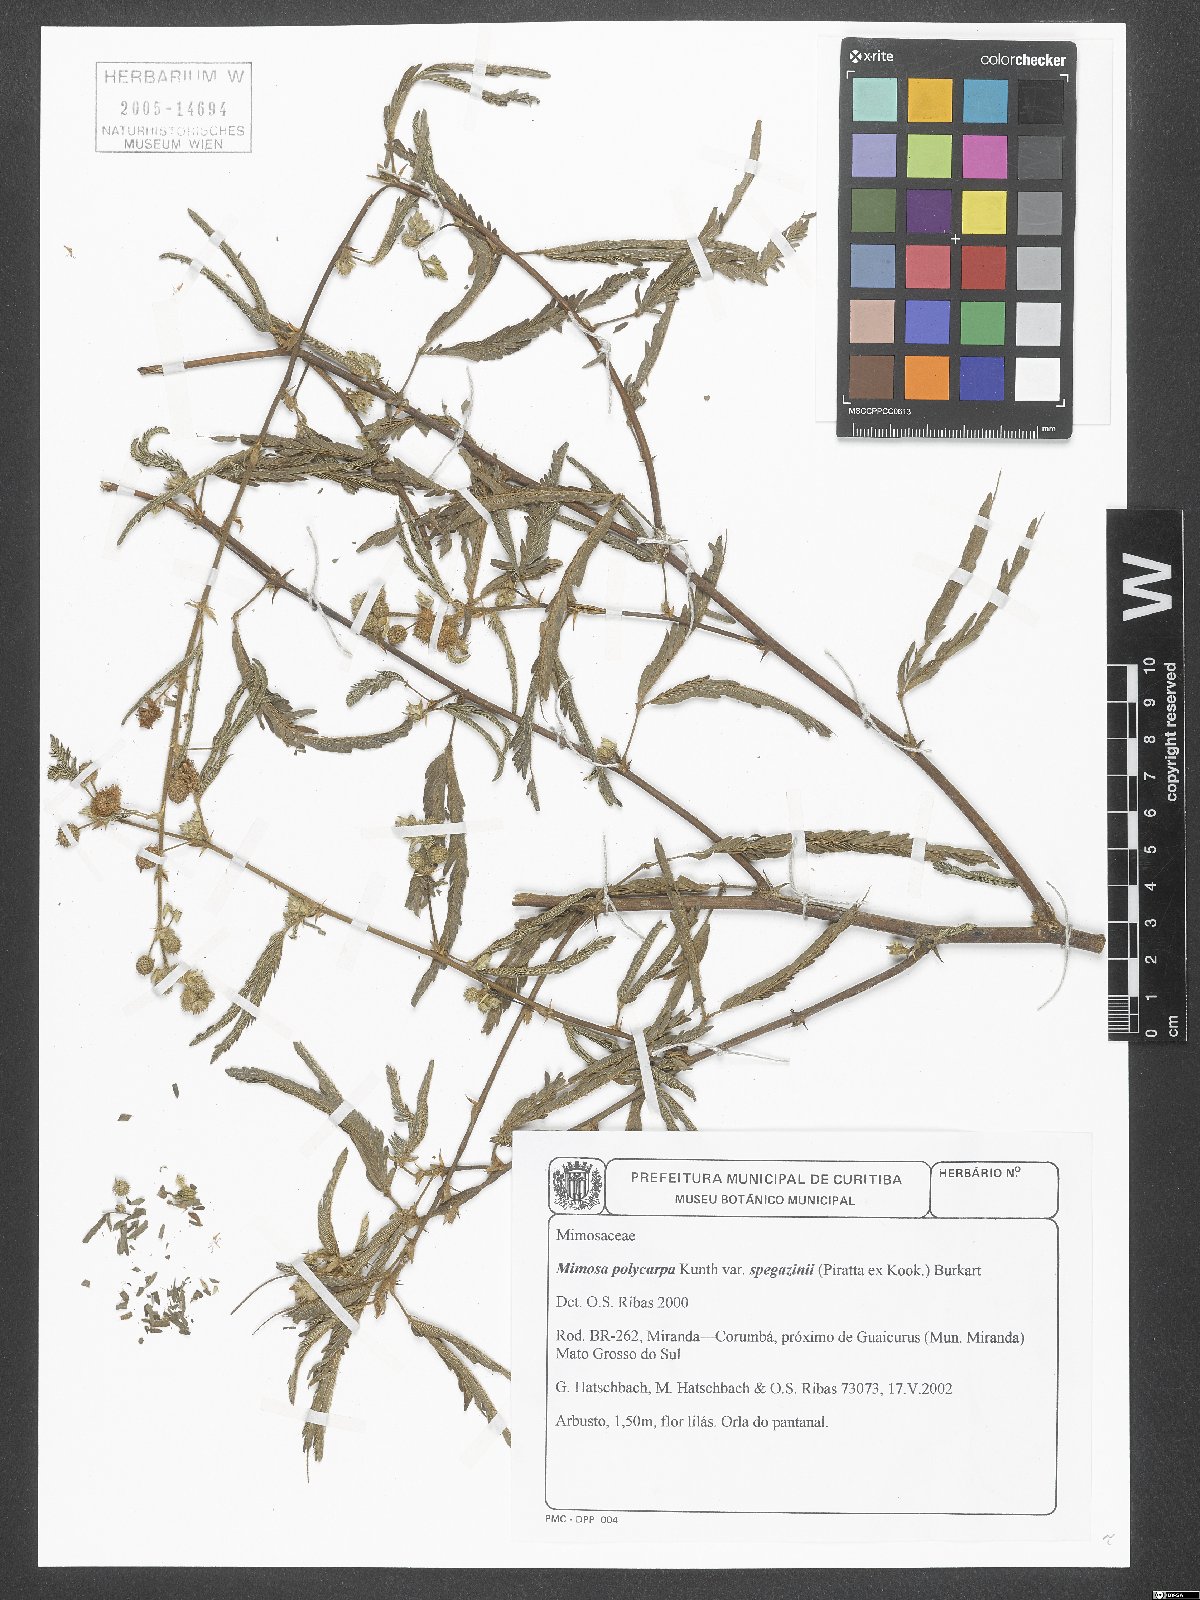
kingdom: Plantae
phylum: Tracheophyta
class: Magnoliopsida
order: Fabales
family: Fabaceae
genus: Mimosa
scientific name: Mimosa polycarpa
